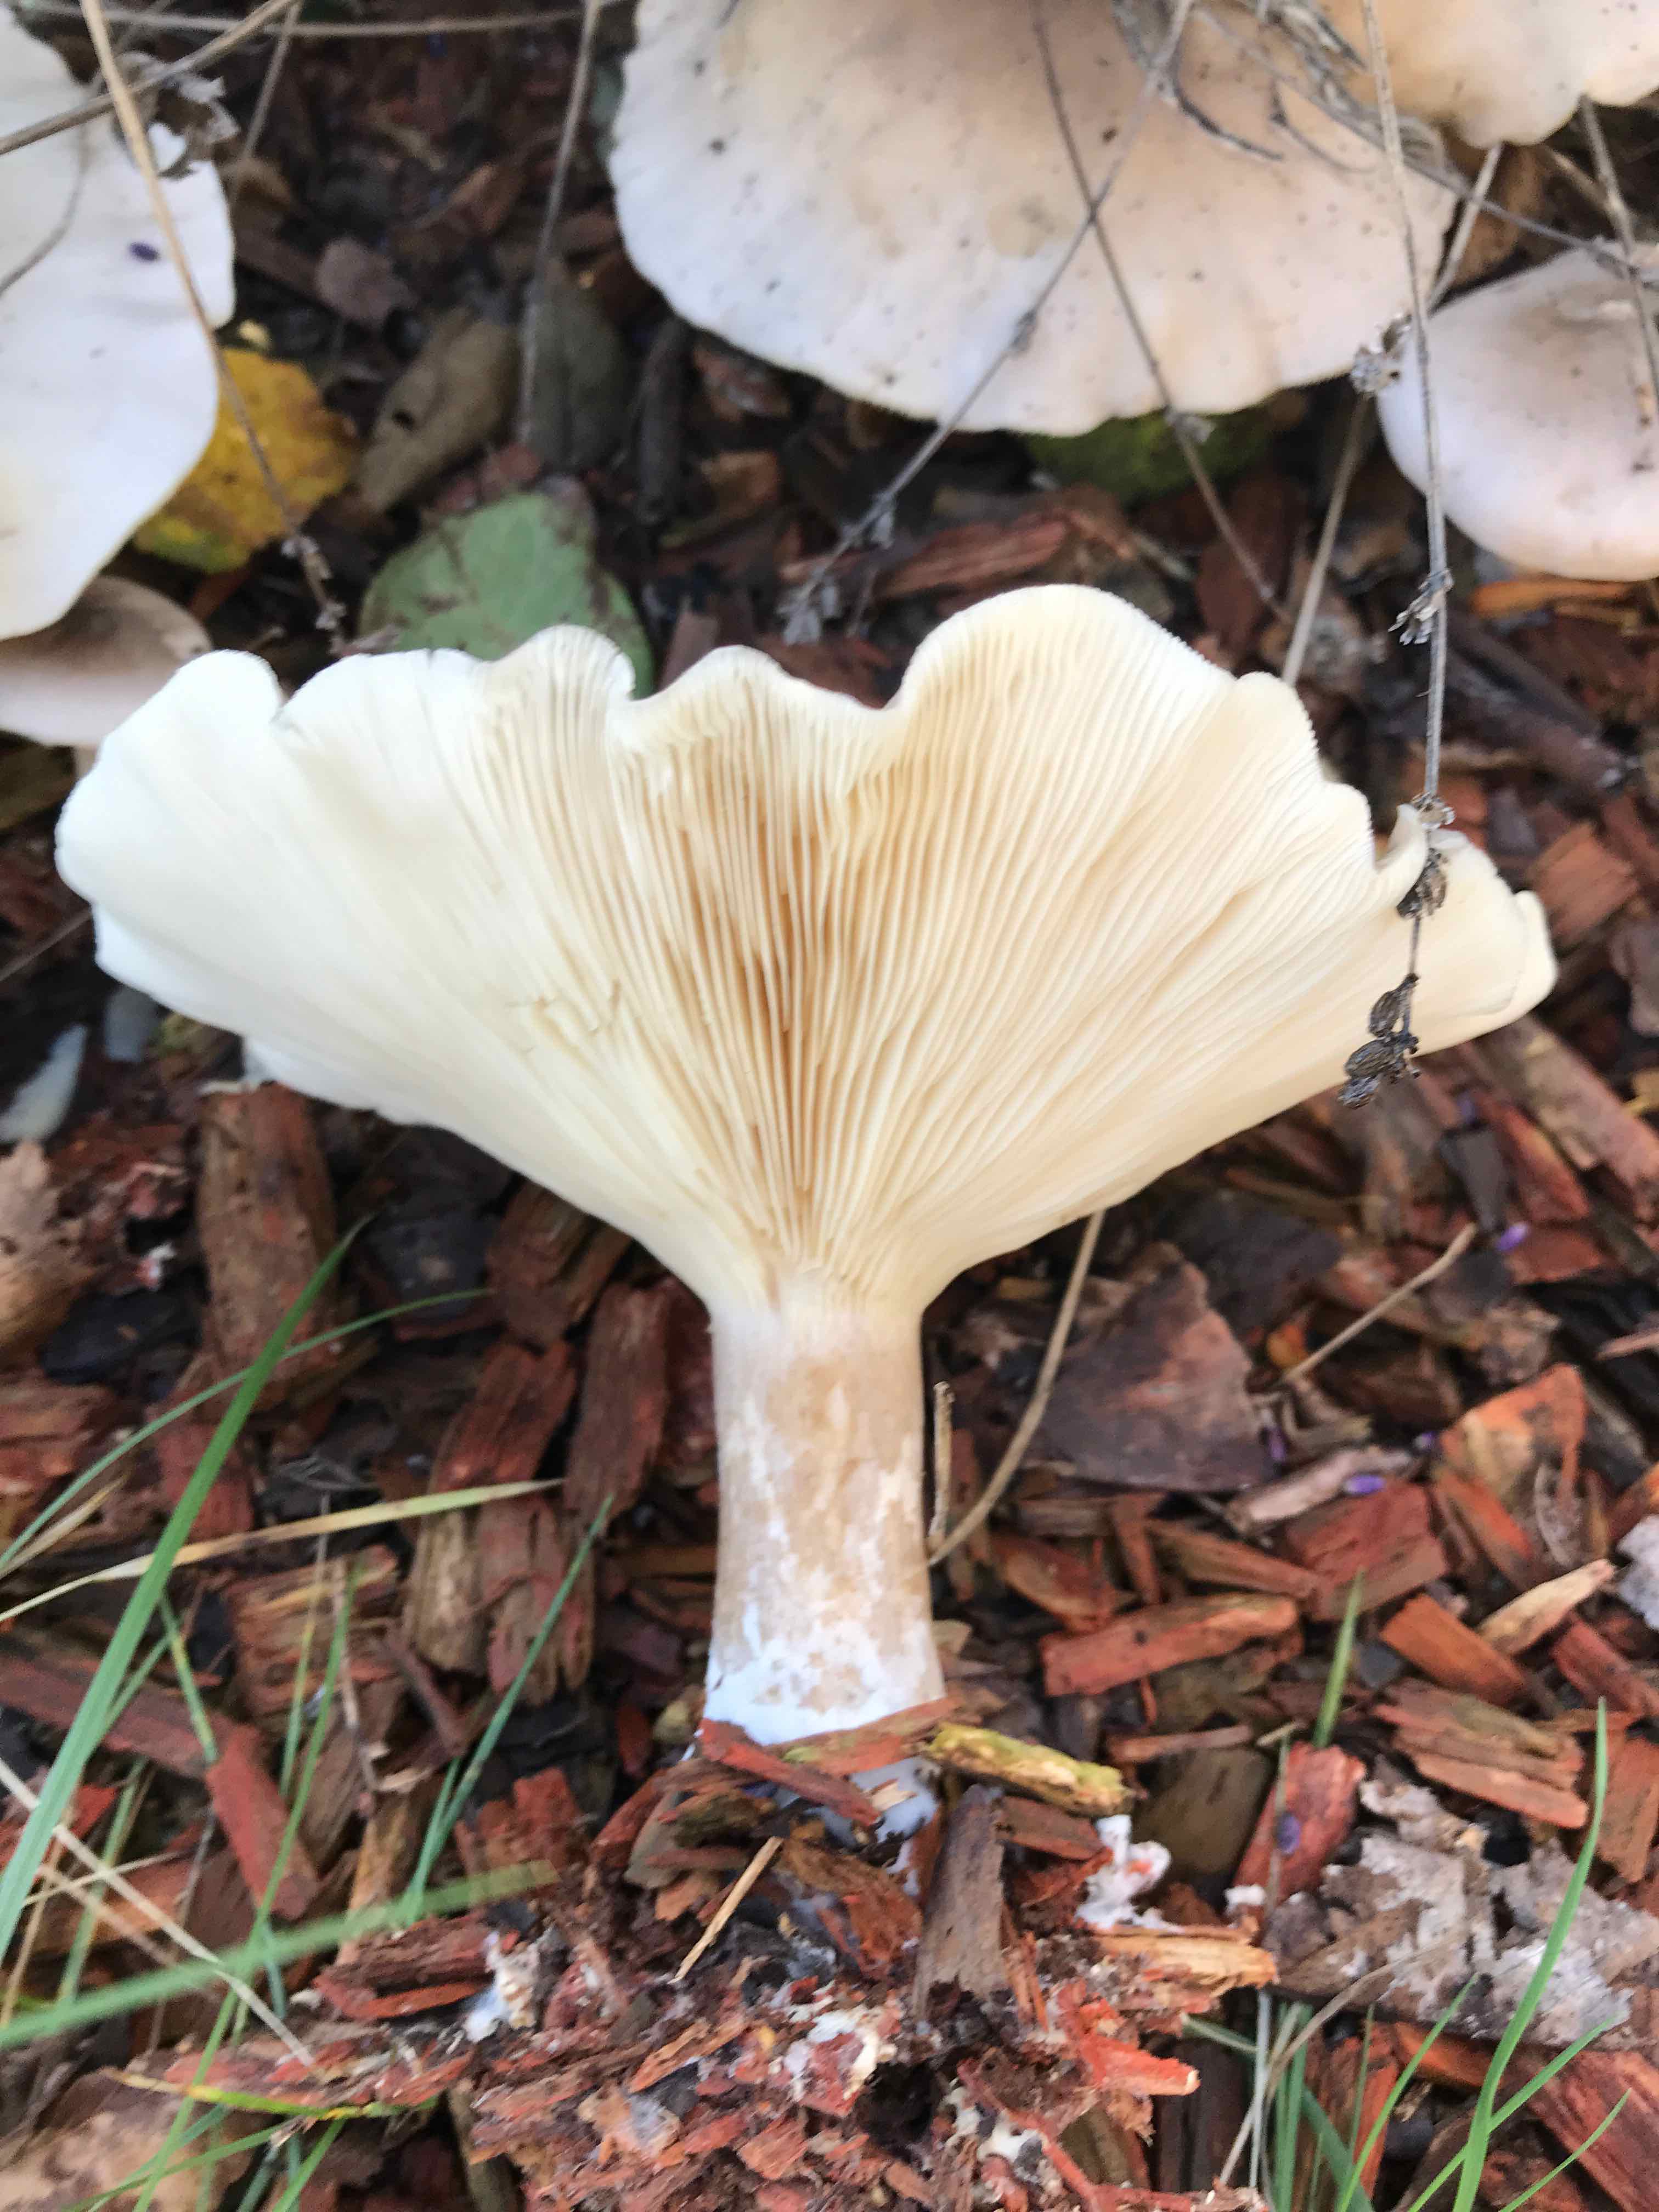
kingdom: Fungi
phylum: Basidiomycota
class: Agaricomycetes
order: Agaricales
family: Tricholomataceae
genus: Clitocybe
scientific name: Clitocybe nebularis
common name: tåge-tragthat
